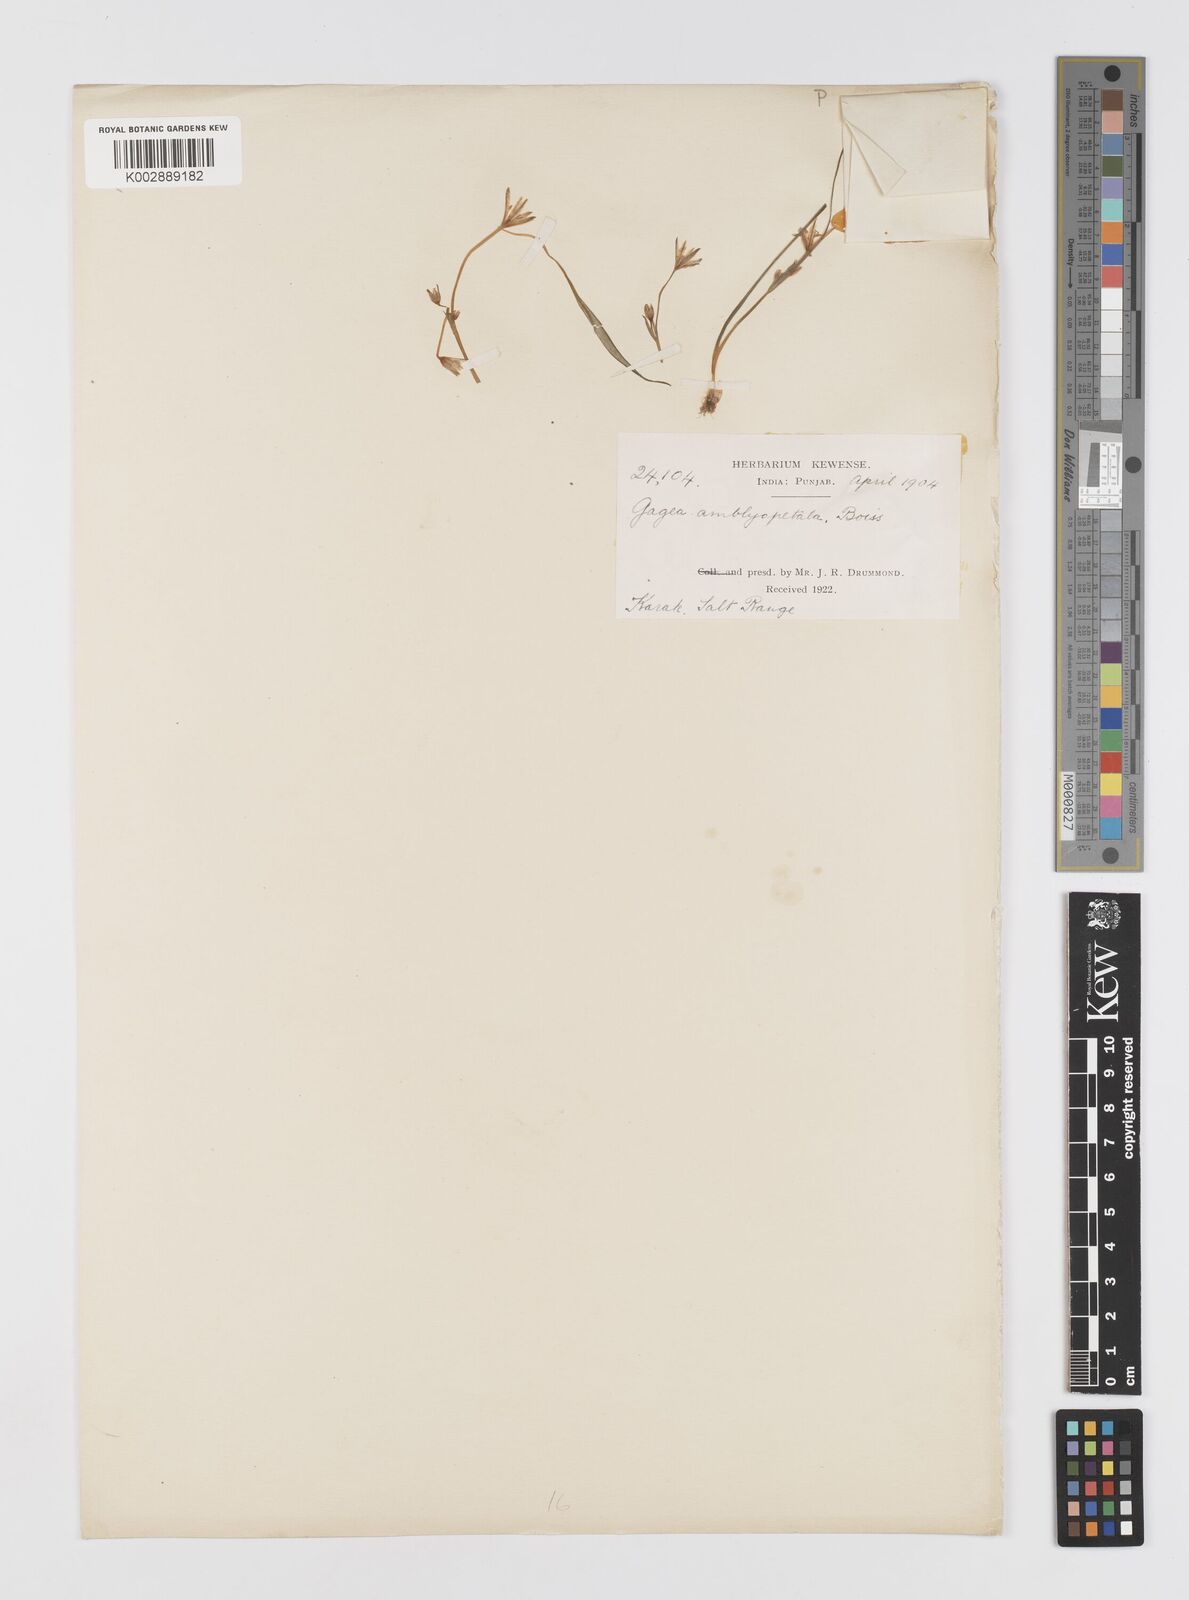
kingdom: Plantae
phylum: Tracheophyta
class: Liliopsida
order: Liliales
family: Liliaceae
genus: Gagea
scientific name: Gagea amblyopetala
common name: Blunt-flowered gagea
